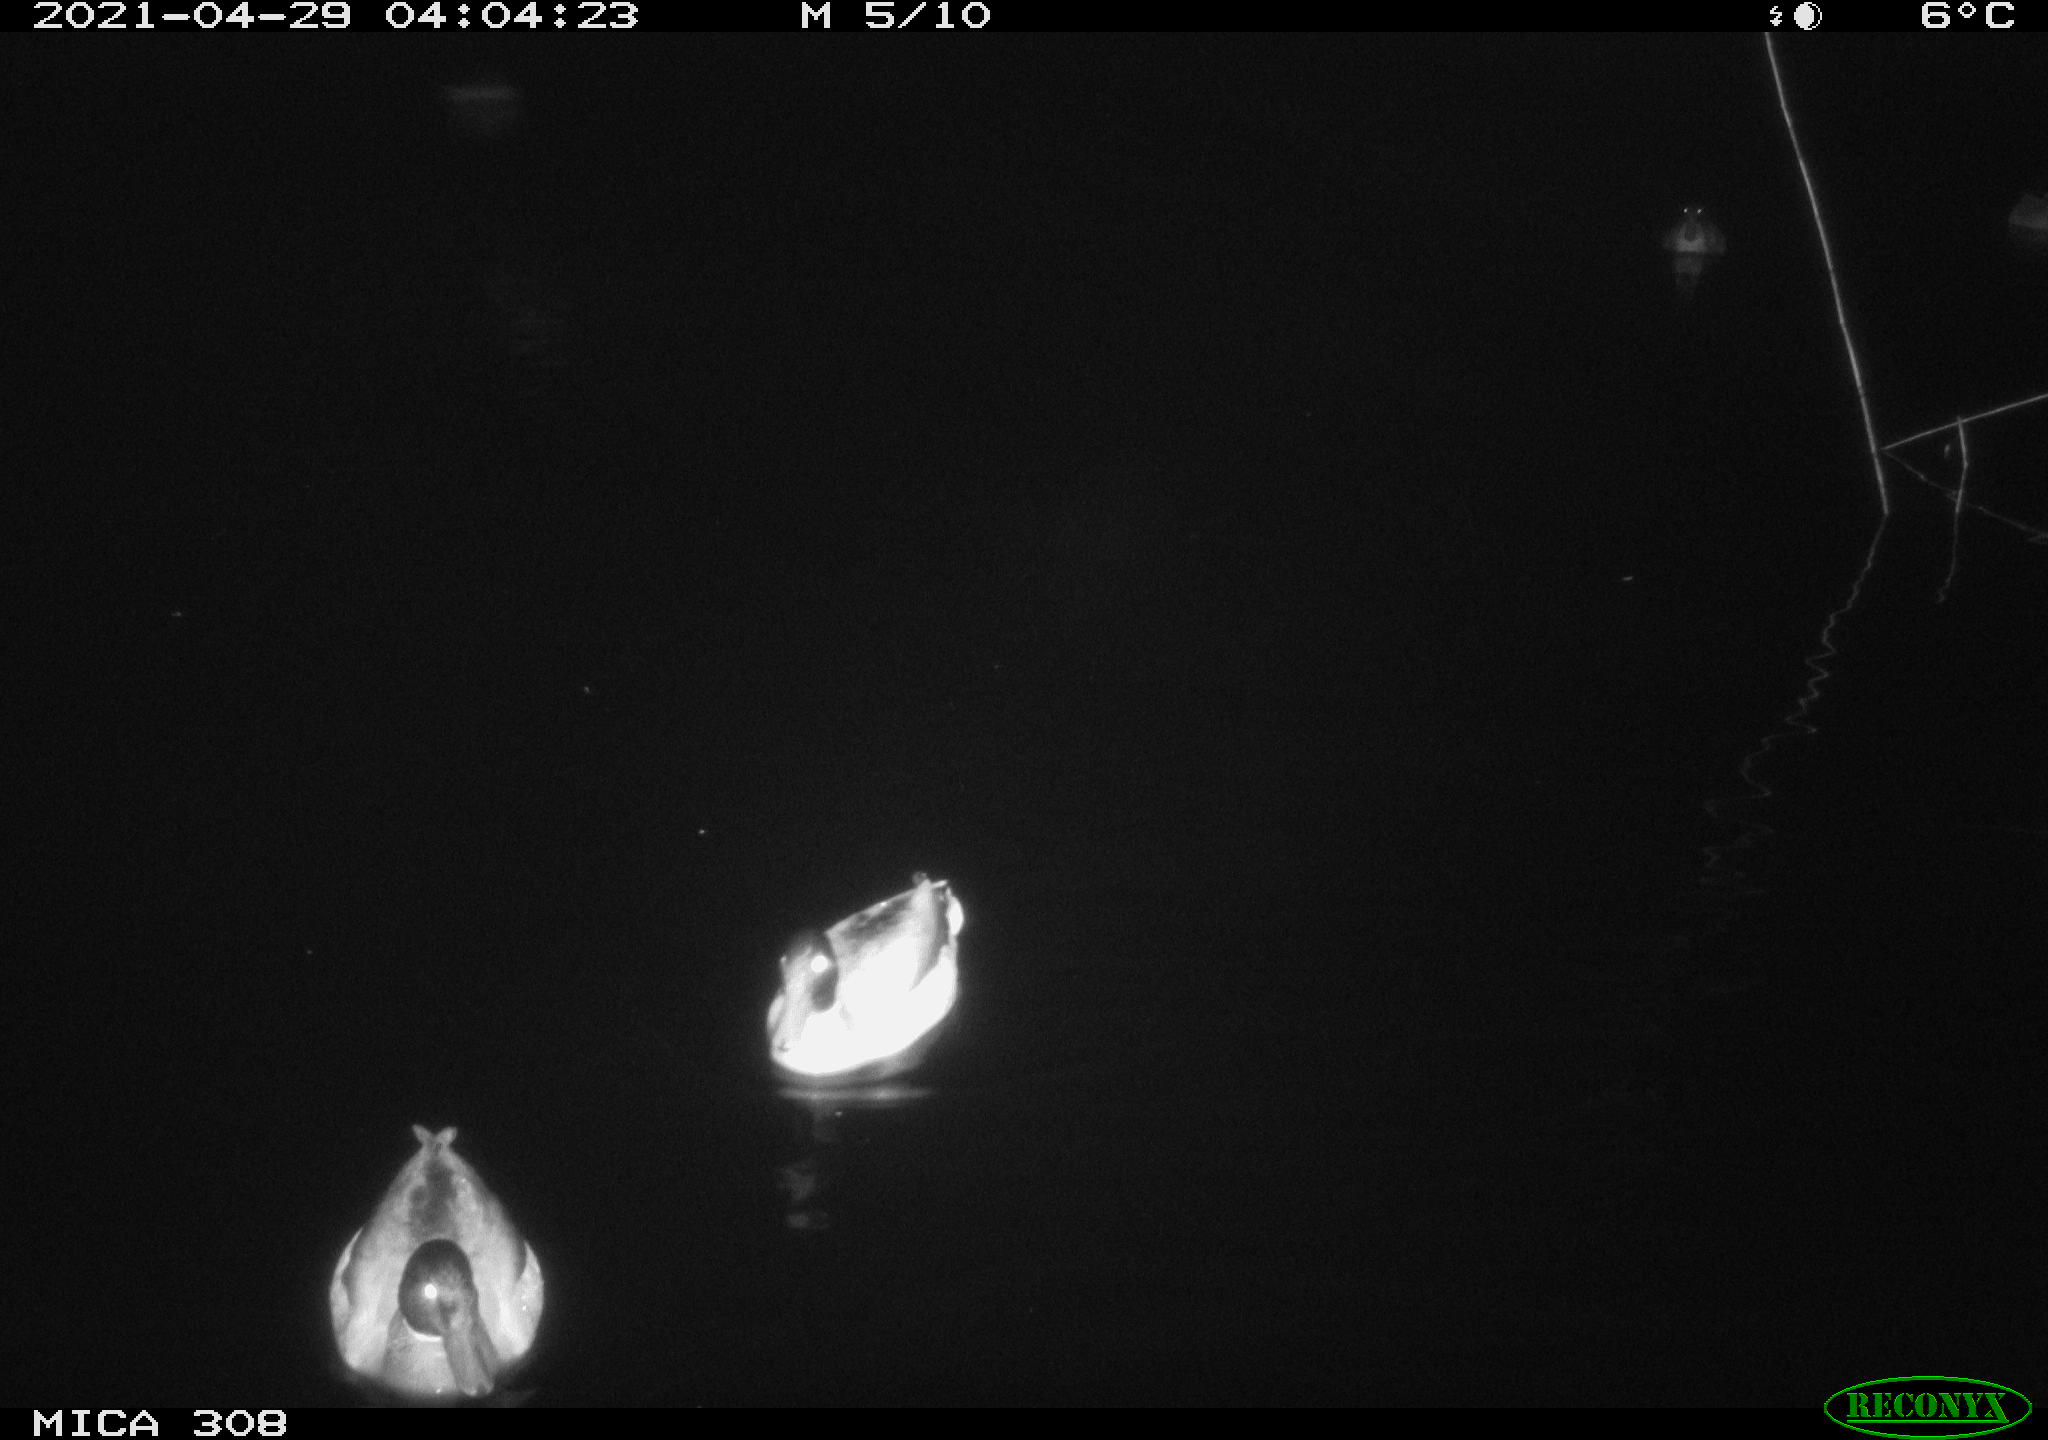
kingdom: Animalia
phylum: Chordata
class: Aves
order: Anseriformes
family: Anatidae
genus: Anas
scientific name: Anas platyrhynchos
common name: Mallard
